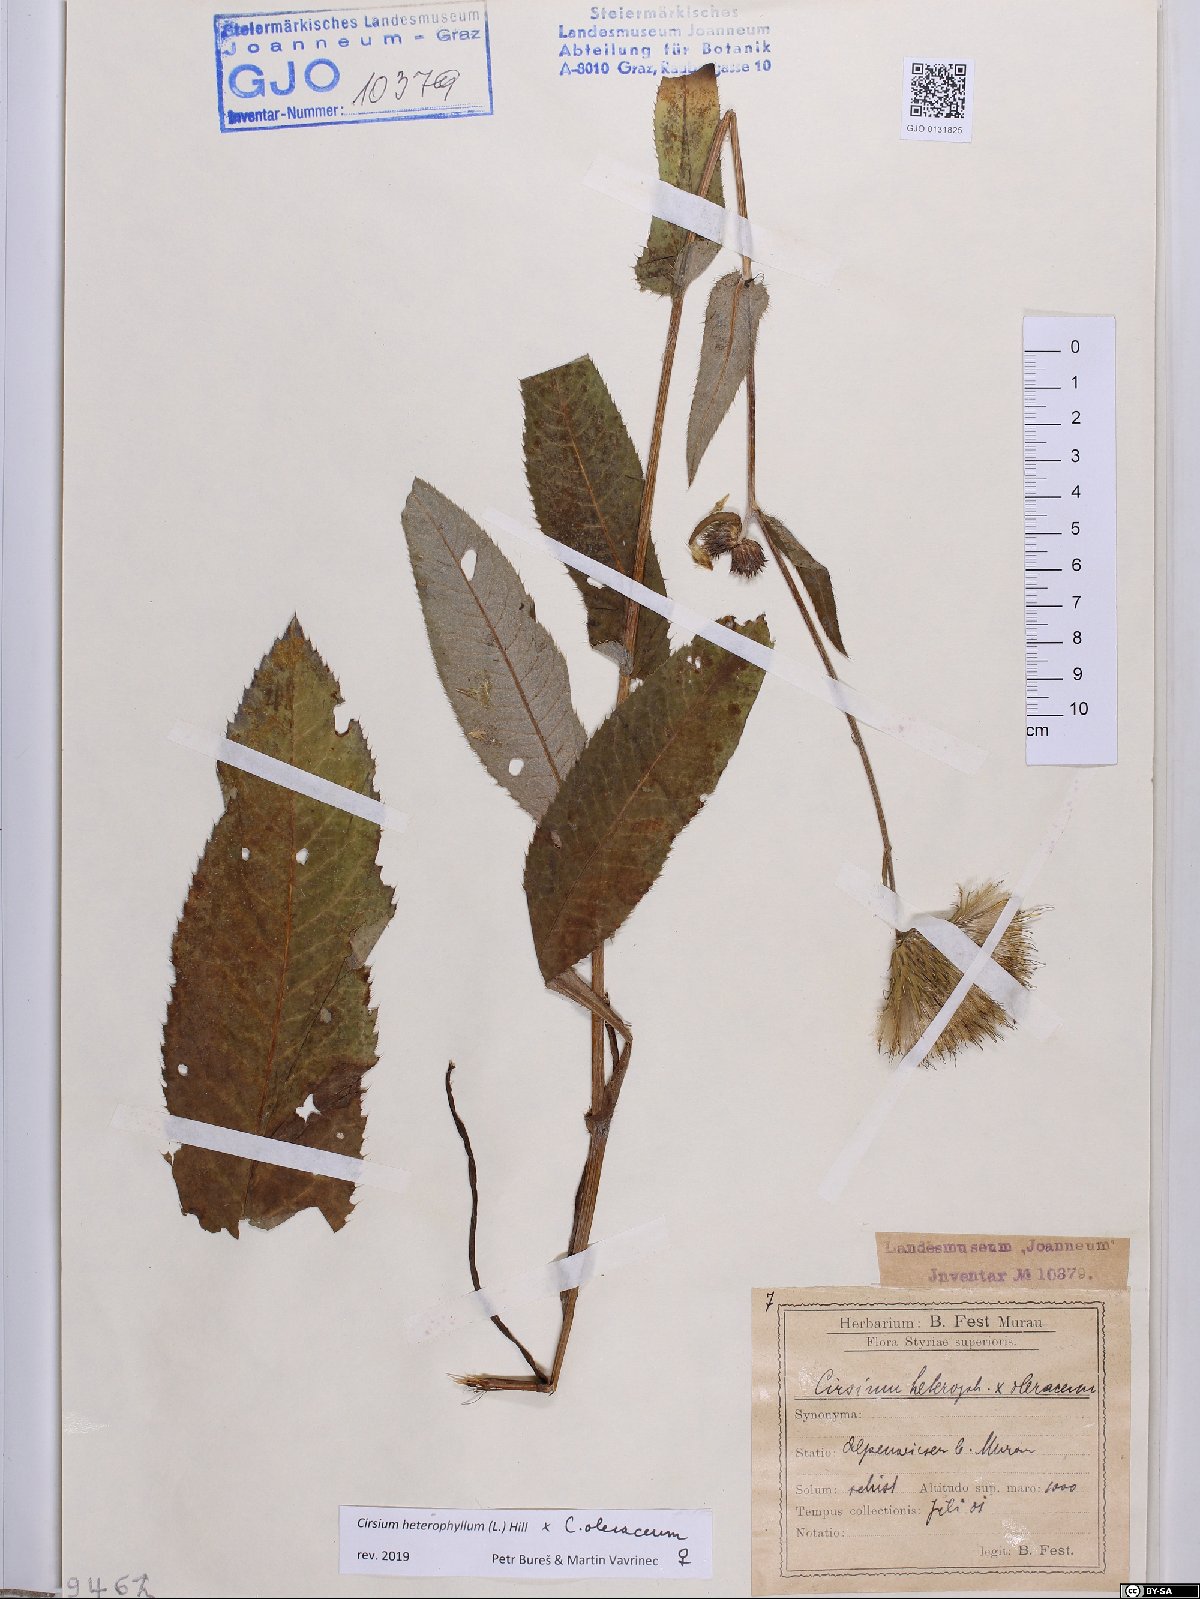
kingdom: Plantae
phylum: Tracheophyta
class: Magnoliopsida
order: Asterales
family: Asteraceae
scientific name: Asteraceae
